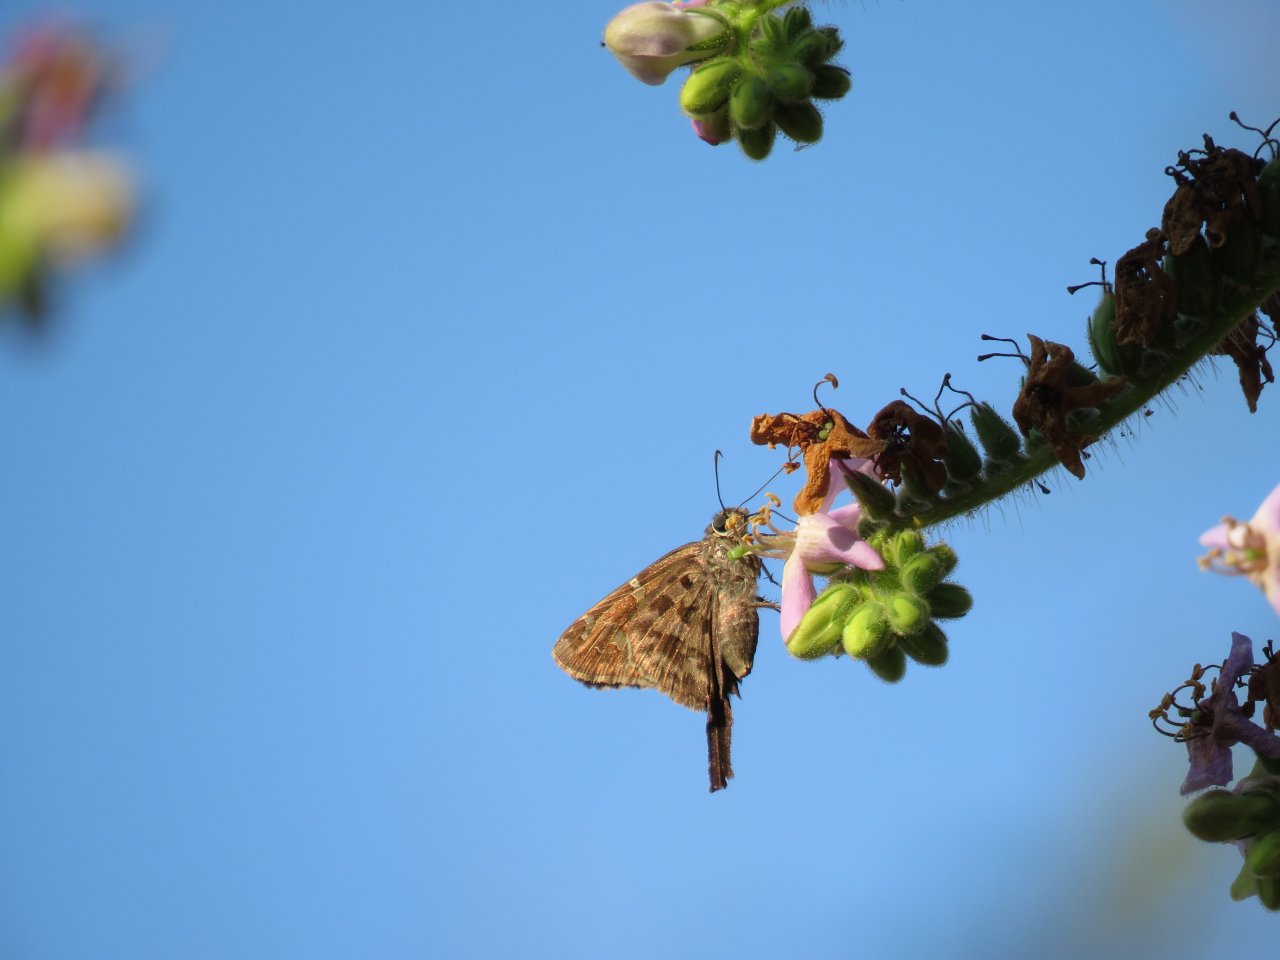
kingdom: Animalia
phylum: Arthropoda
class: Insecta
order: Lepidoptera
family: Hesperiidae
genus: Urbanus
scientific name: Urbanus proteus
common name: Long-tailed Skipper
